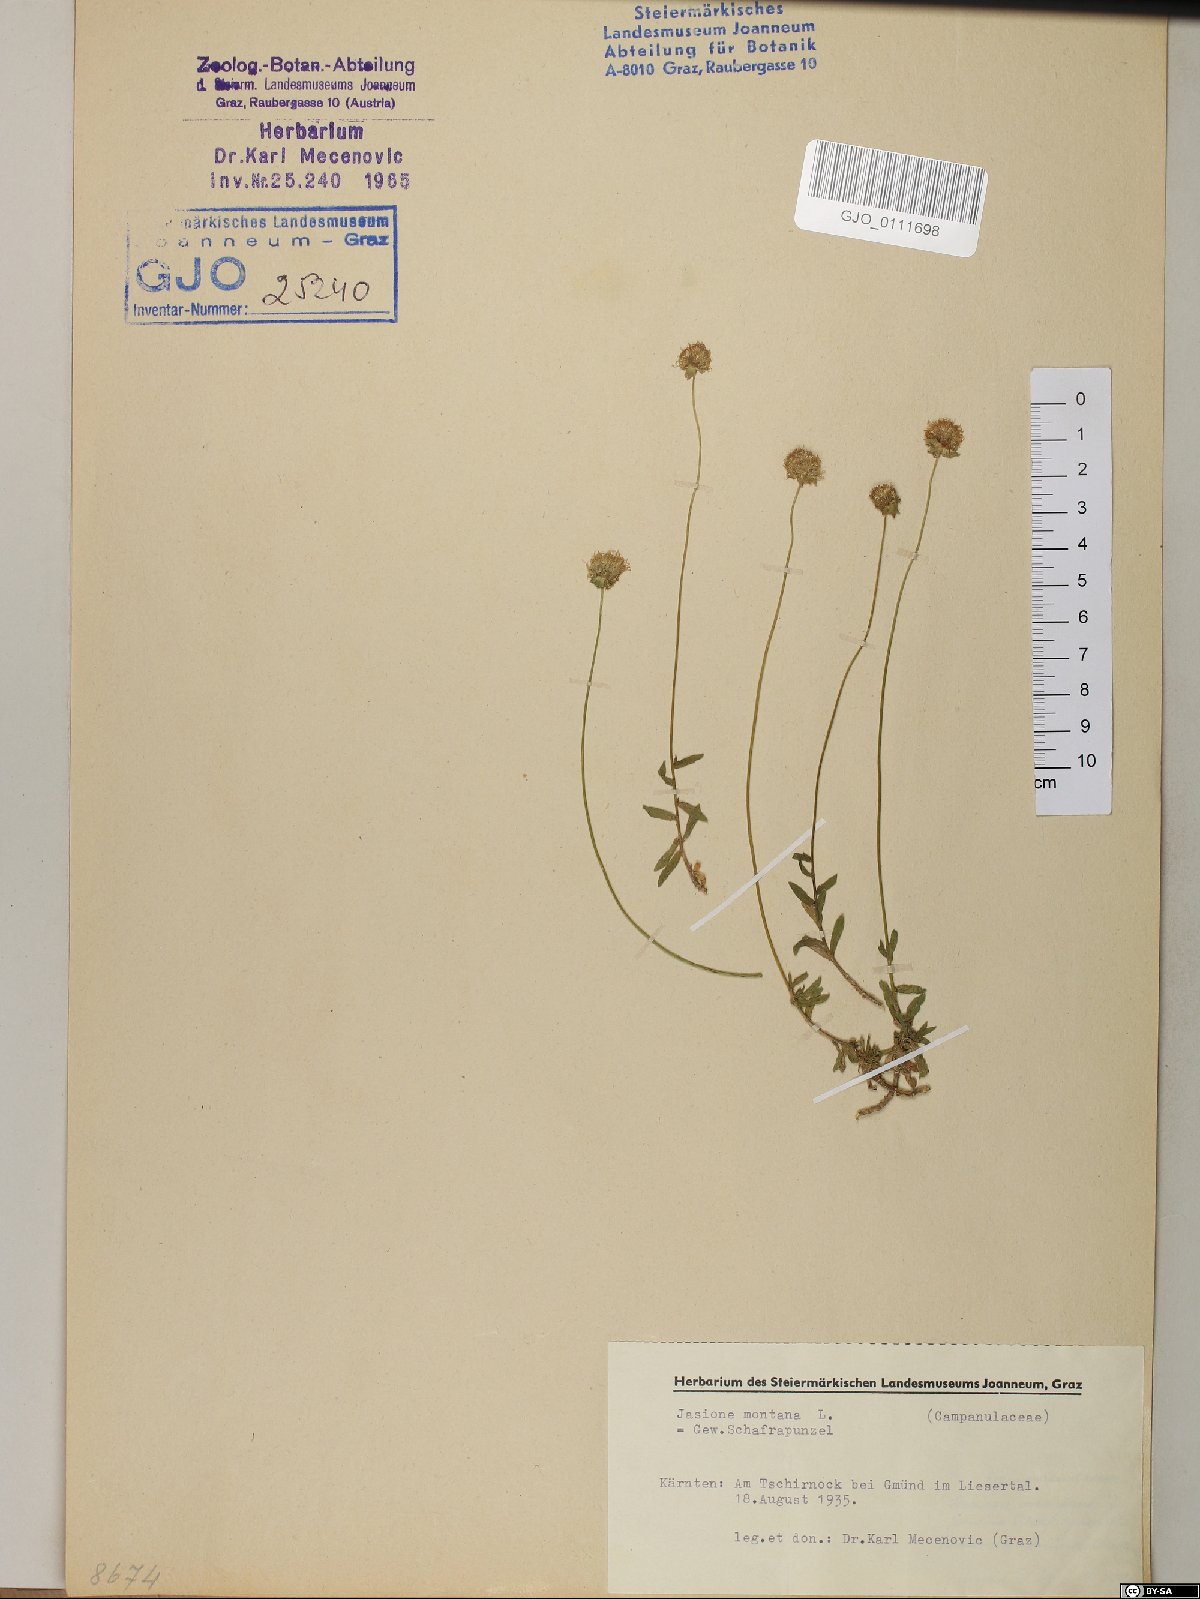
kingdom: Plantae
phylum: Tracheophyta
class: Magnoliopsida
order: Asterales
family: Campanulaceae
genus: Jasione
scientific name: Jasione montana
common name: Sheep's-bit
